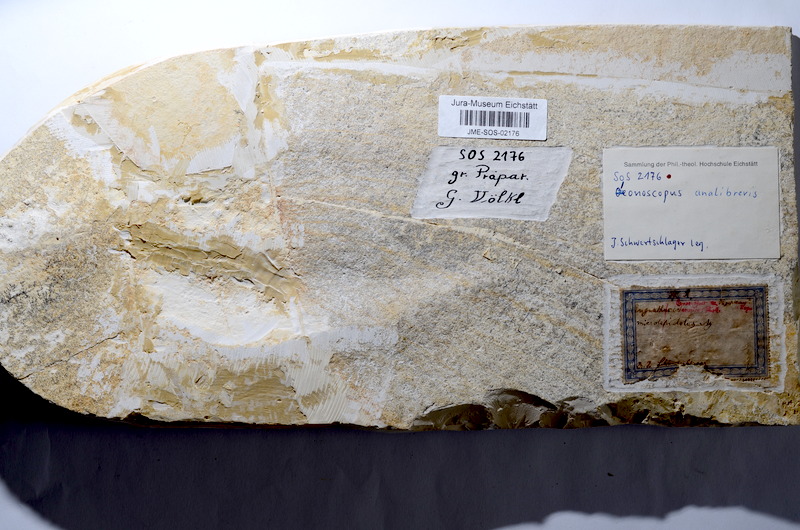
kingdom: Animalia
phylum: Chordata
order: Amiiformes
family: Ionoscopidae
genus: Ionoscopus
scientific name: Ionoscopus cyprinoides
